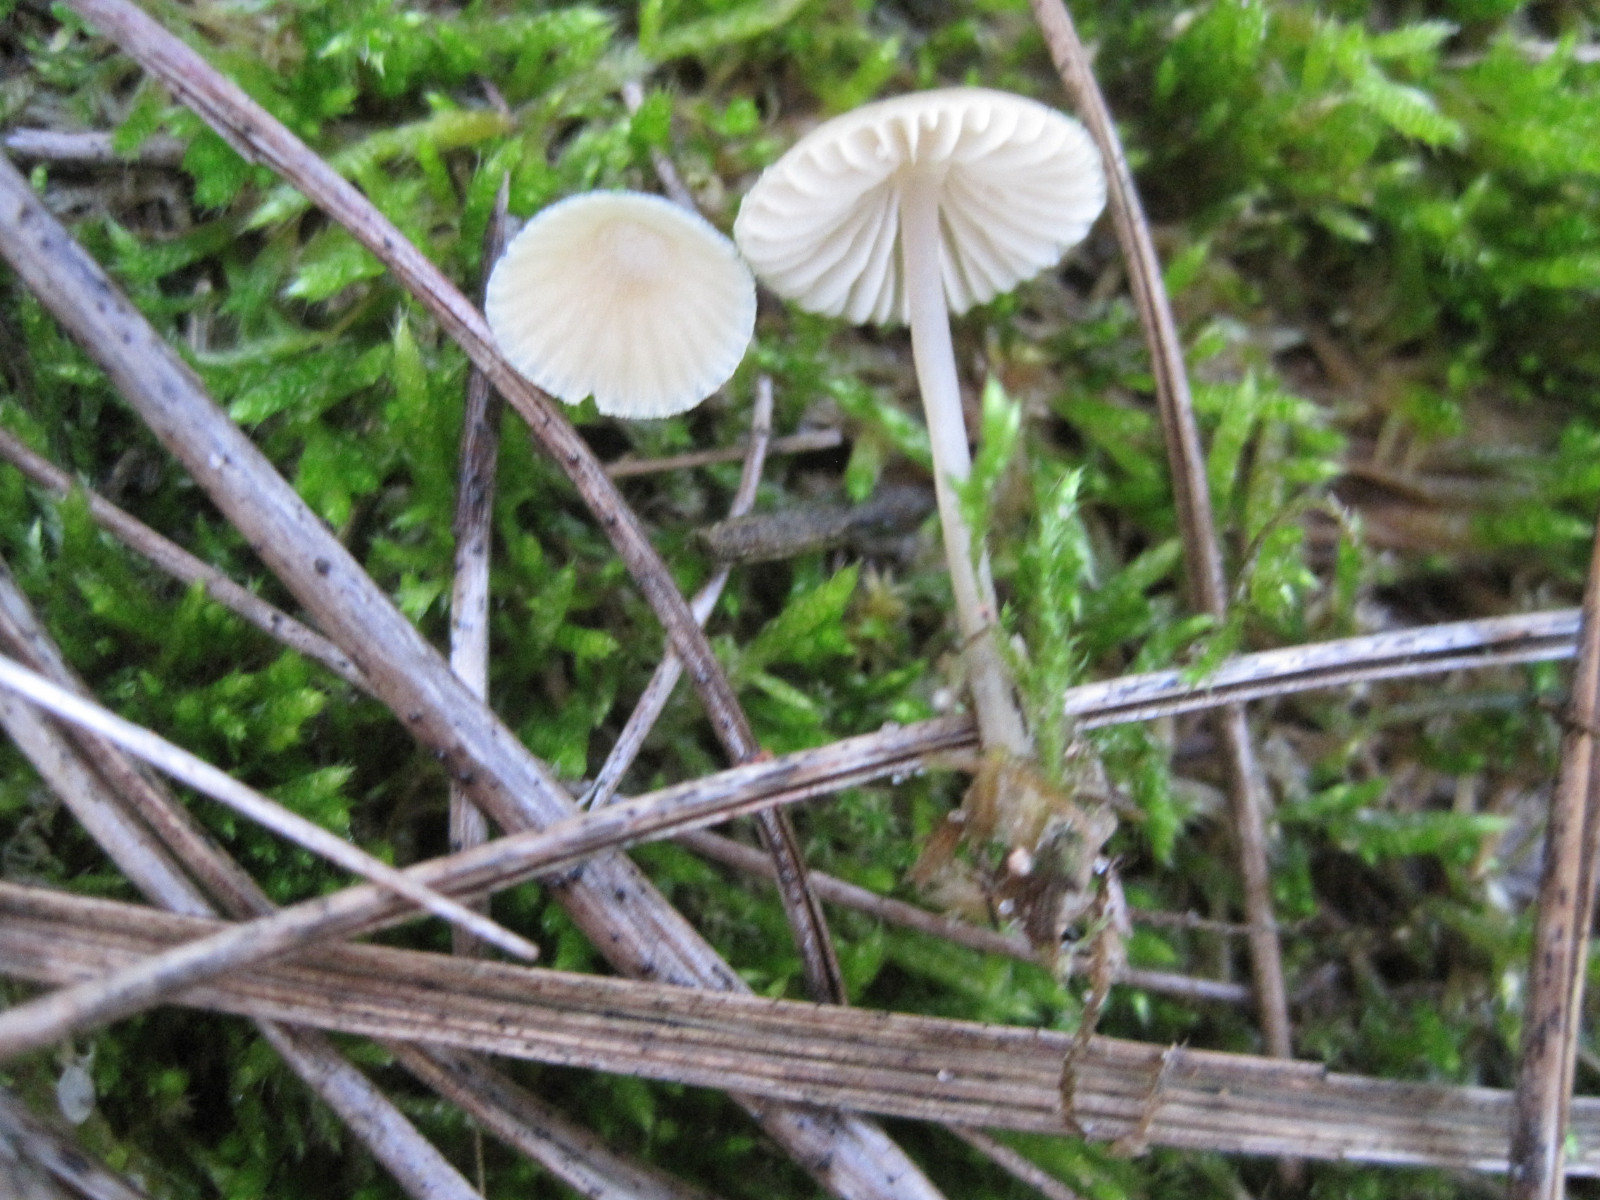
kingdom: Fungi
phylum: Basidiomycota
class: Agaricomycetes
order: Agaricales
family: Mycenaceae
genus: Mycena
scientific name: Mycena chlorantha
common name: klit-huesvamp
